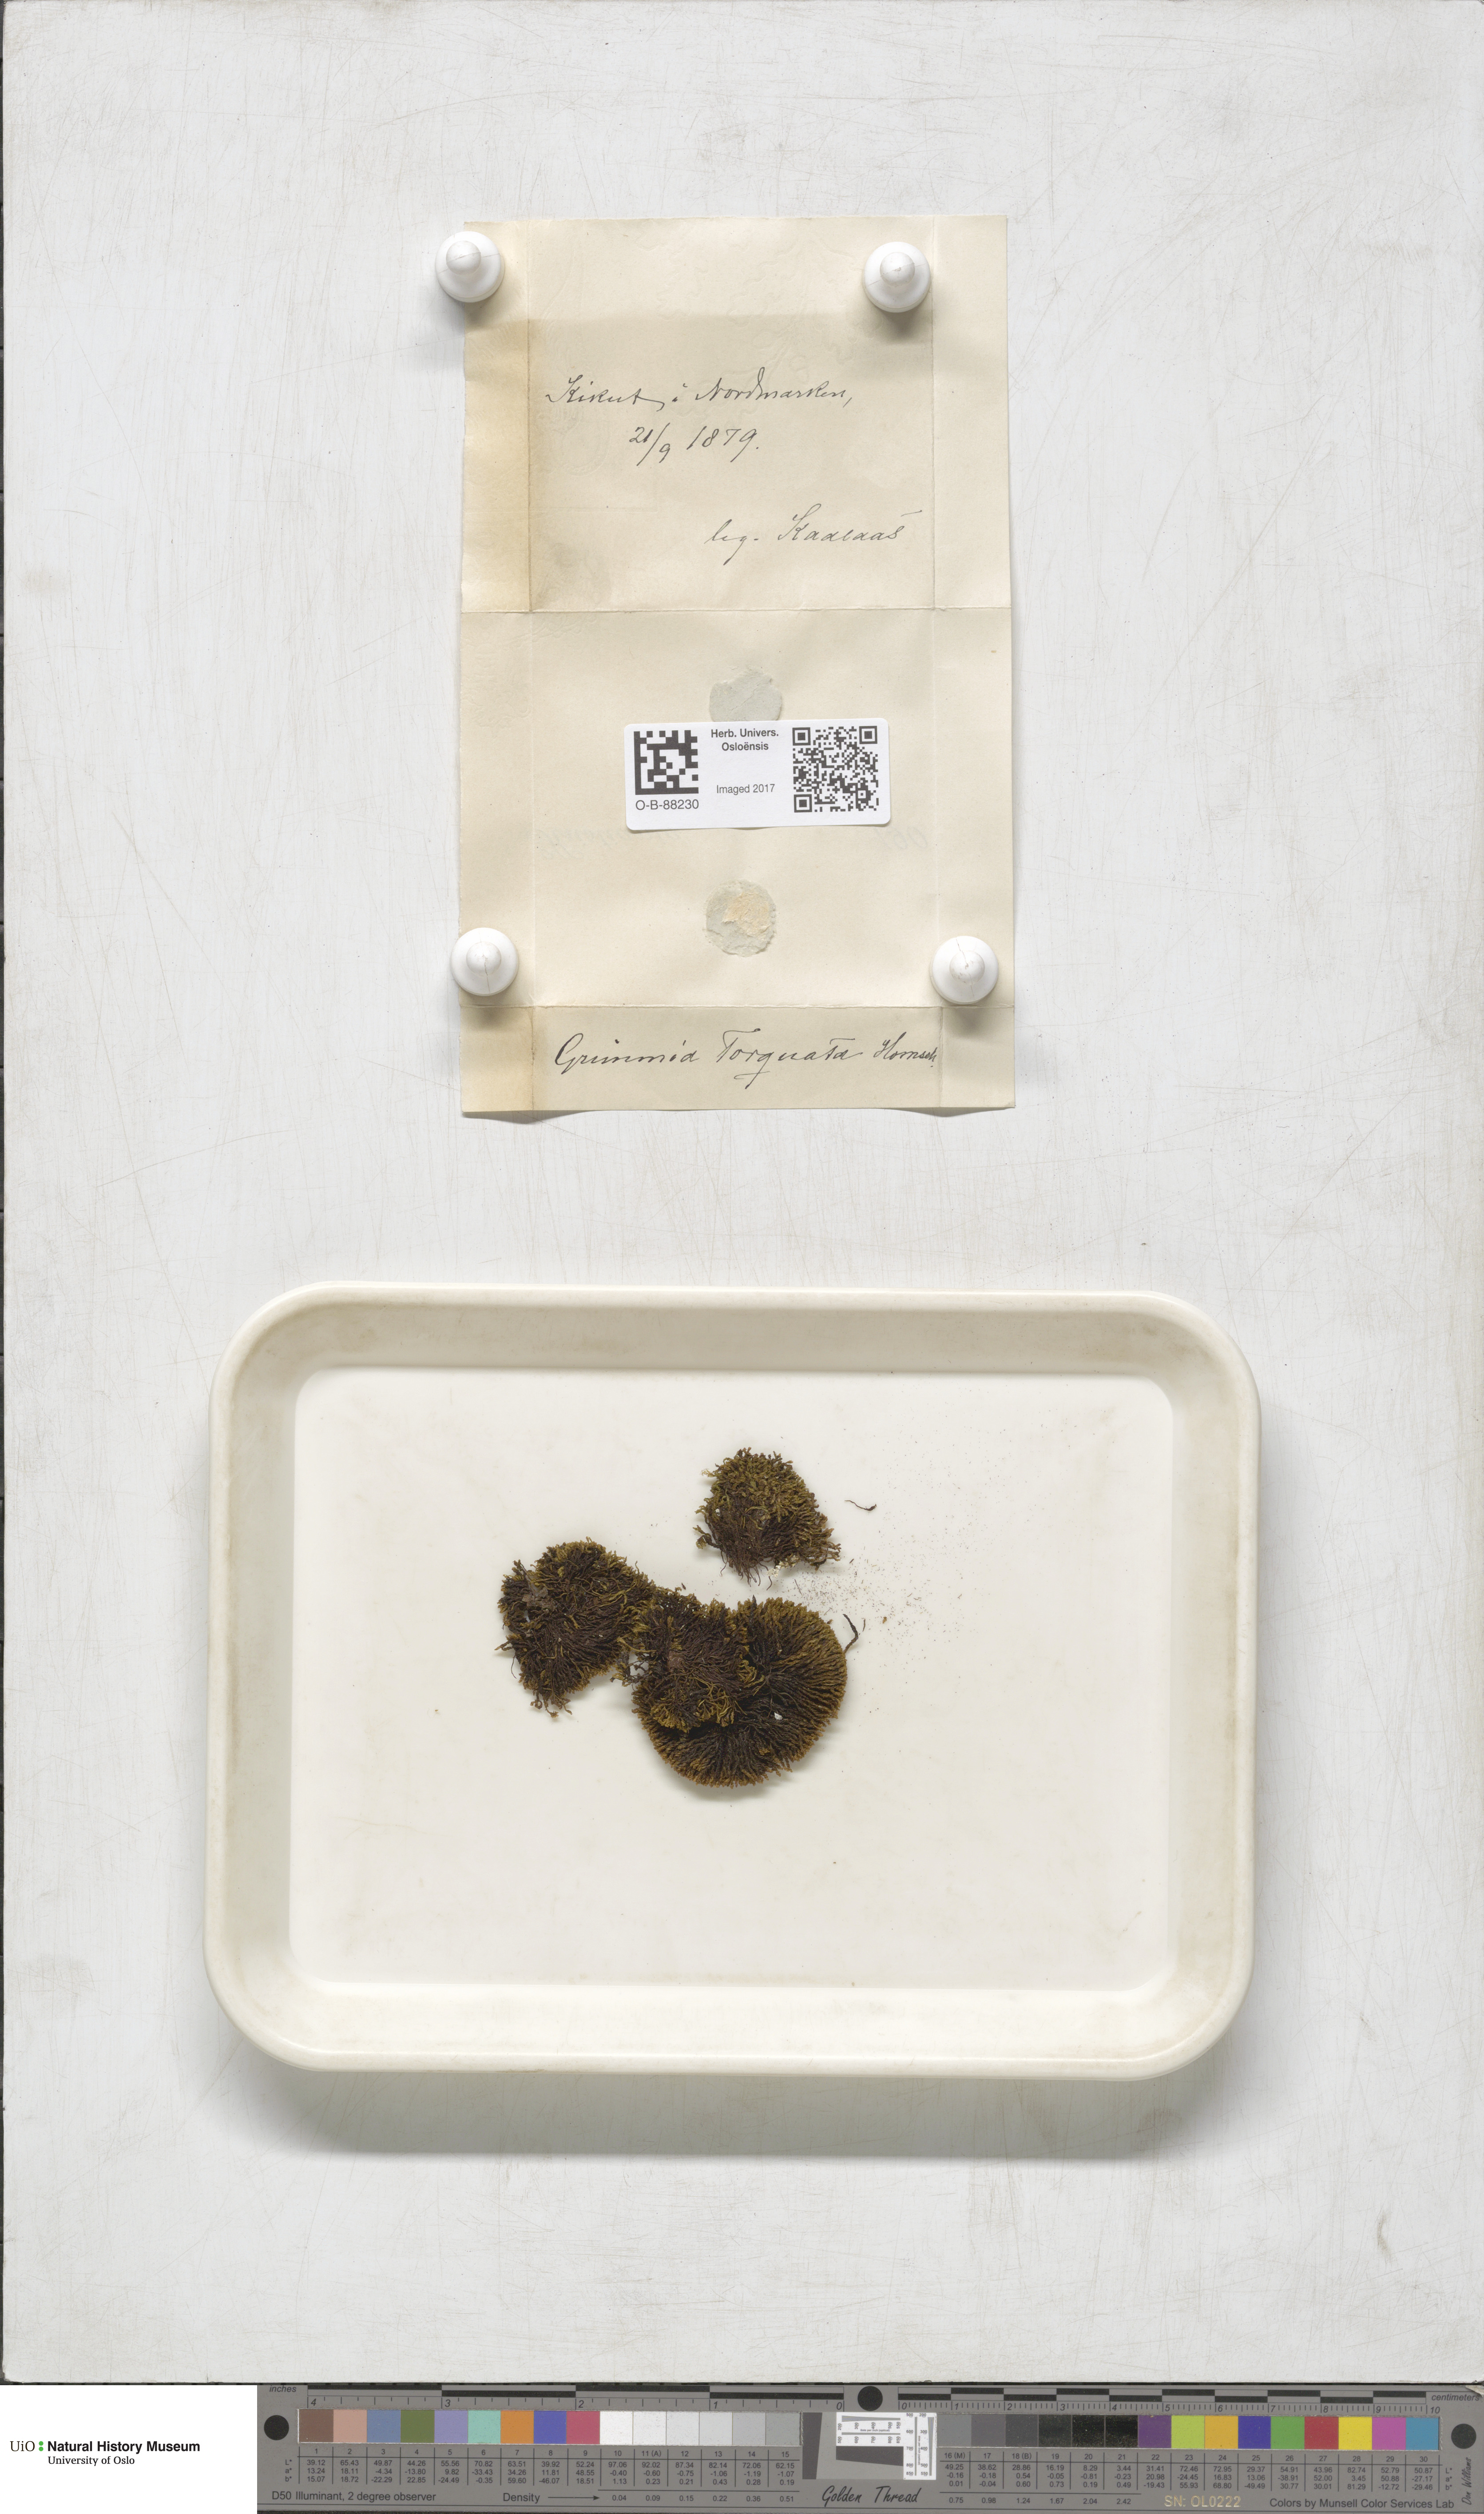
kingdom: Plantae
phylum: Bryophyta
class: Bryopsida
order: Grimmiales
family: Grimmiaceae
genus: Grimmia
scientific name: Grimmia torquata
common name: Twisted grimmia
